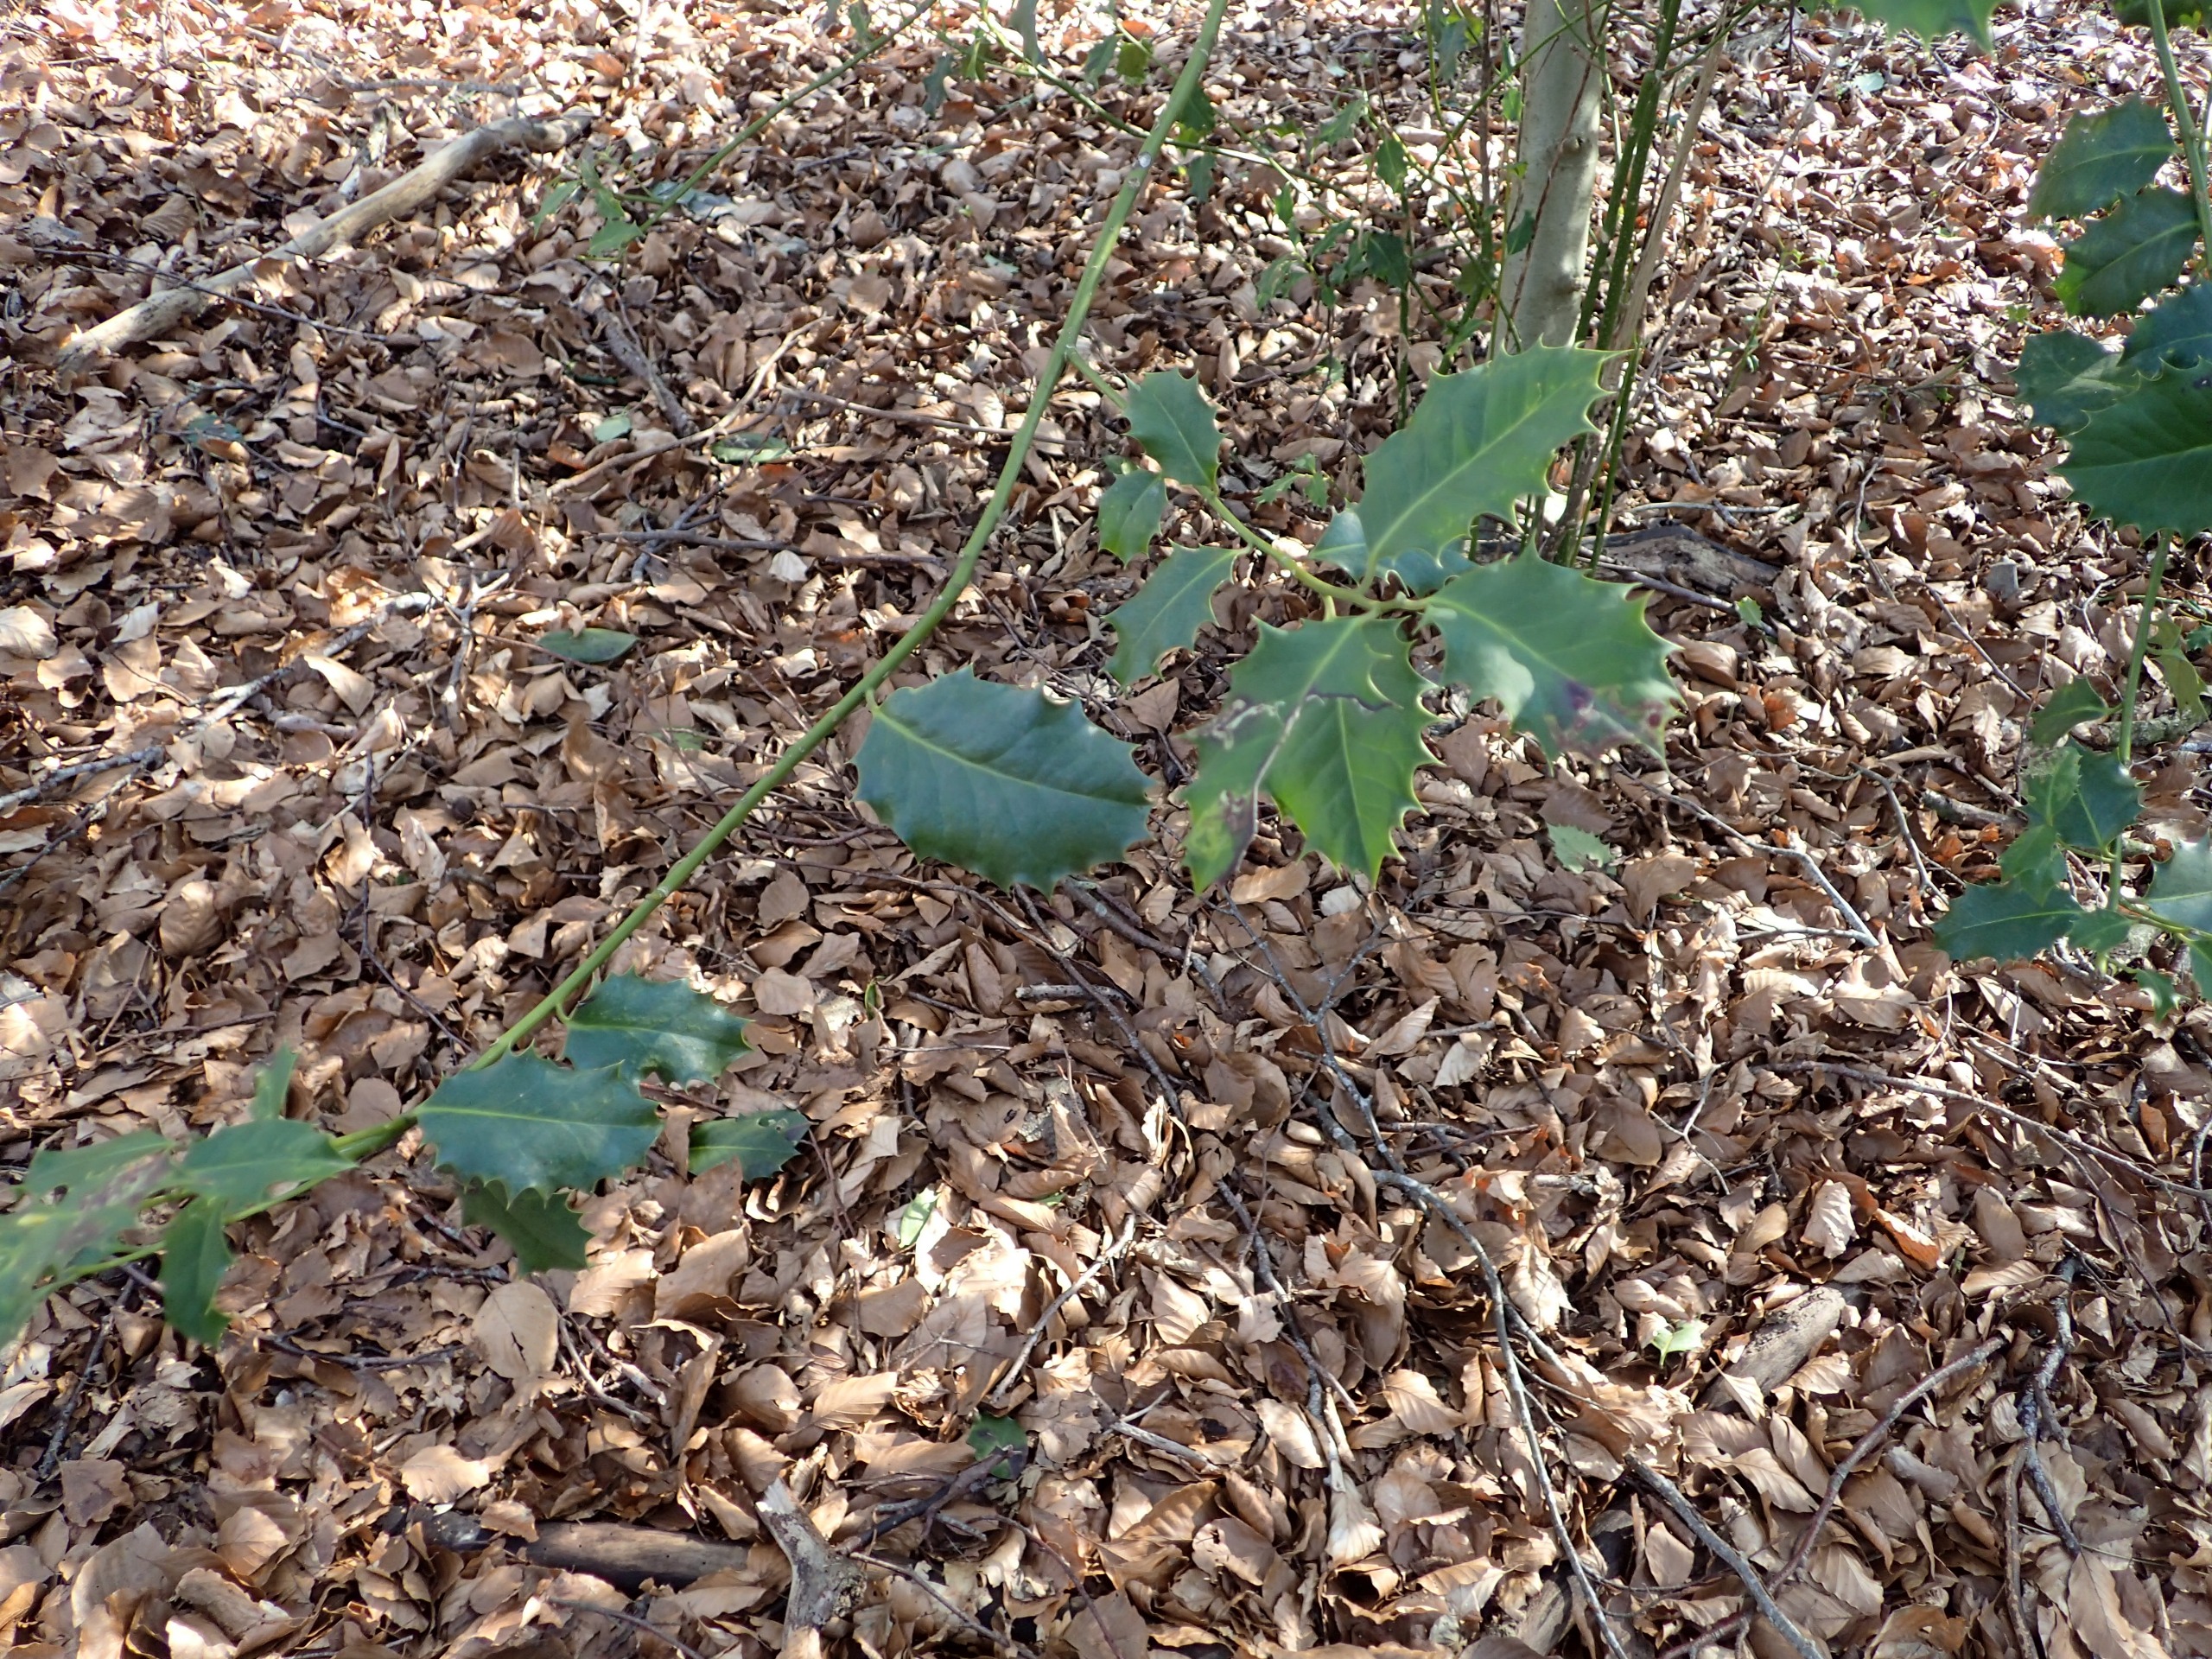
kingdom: Plantae
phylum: Tracheophyta
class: Magnoliopsida
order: Aquifoliales
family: Aquifoliaceae
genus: Ilex
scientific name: Ilex aquifolium
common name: Kristtorn
